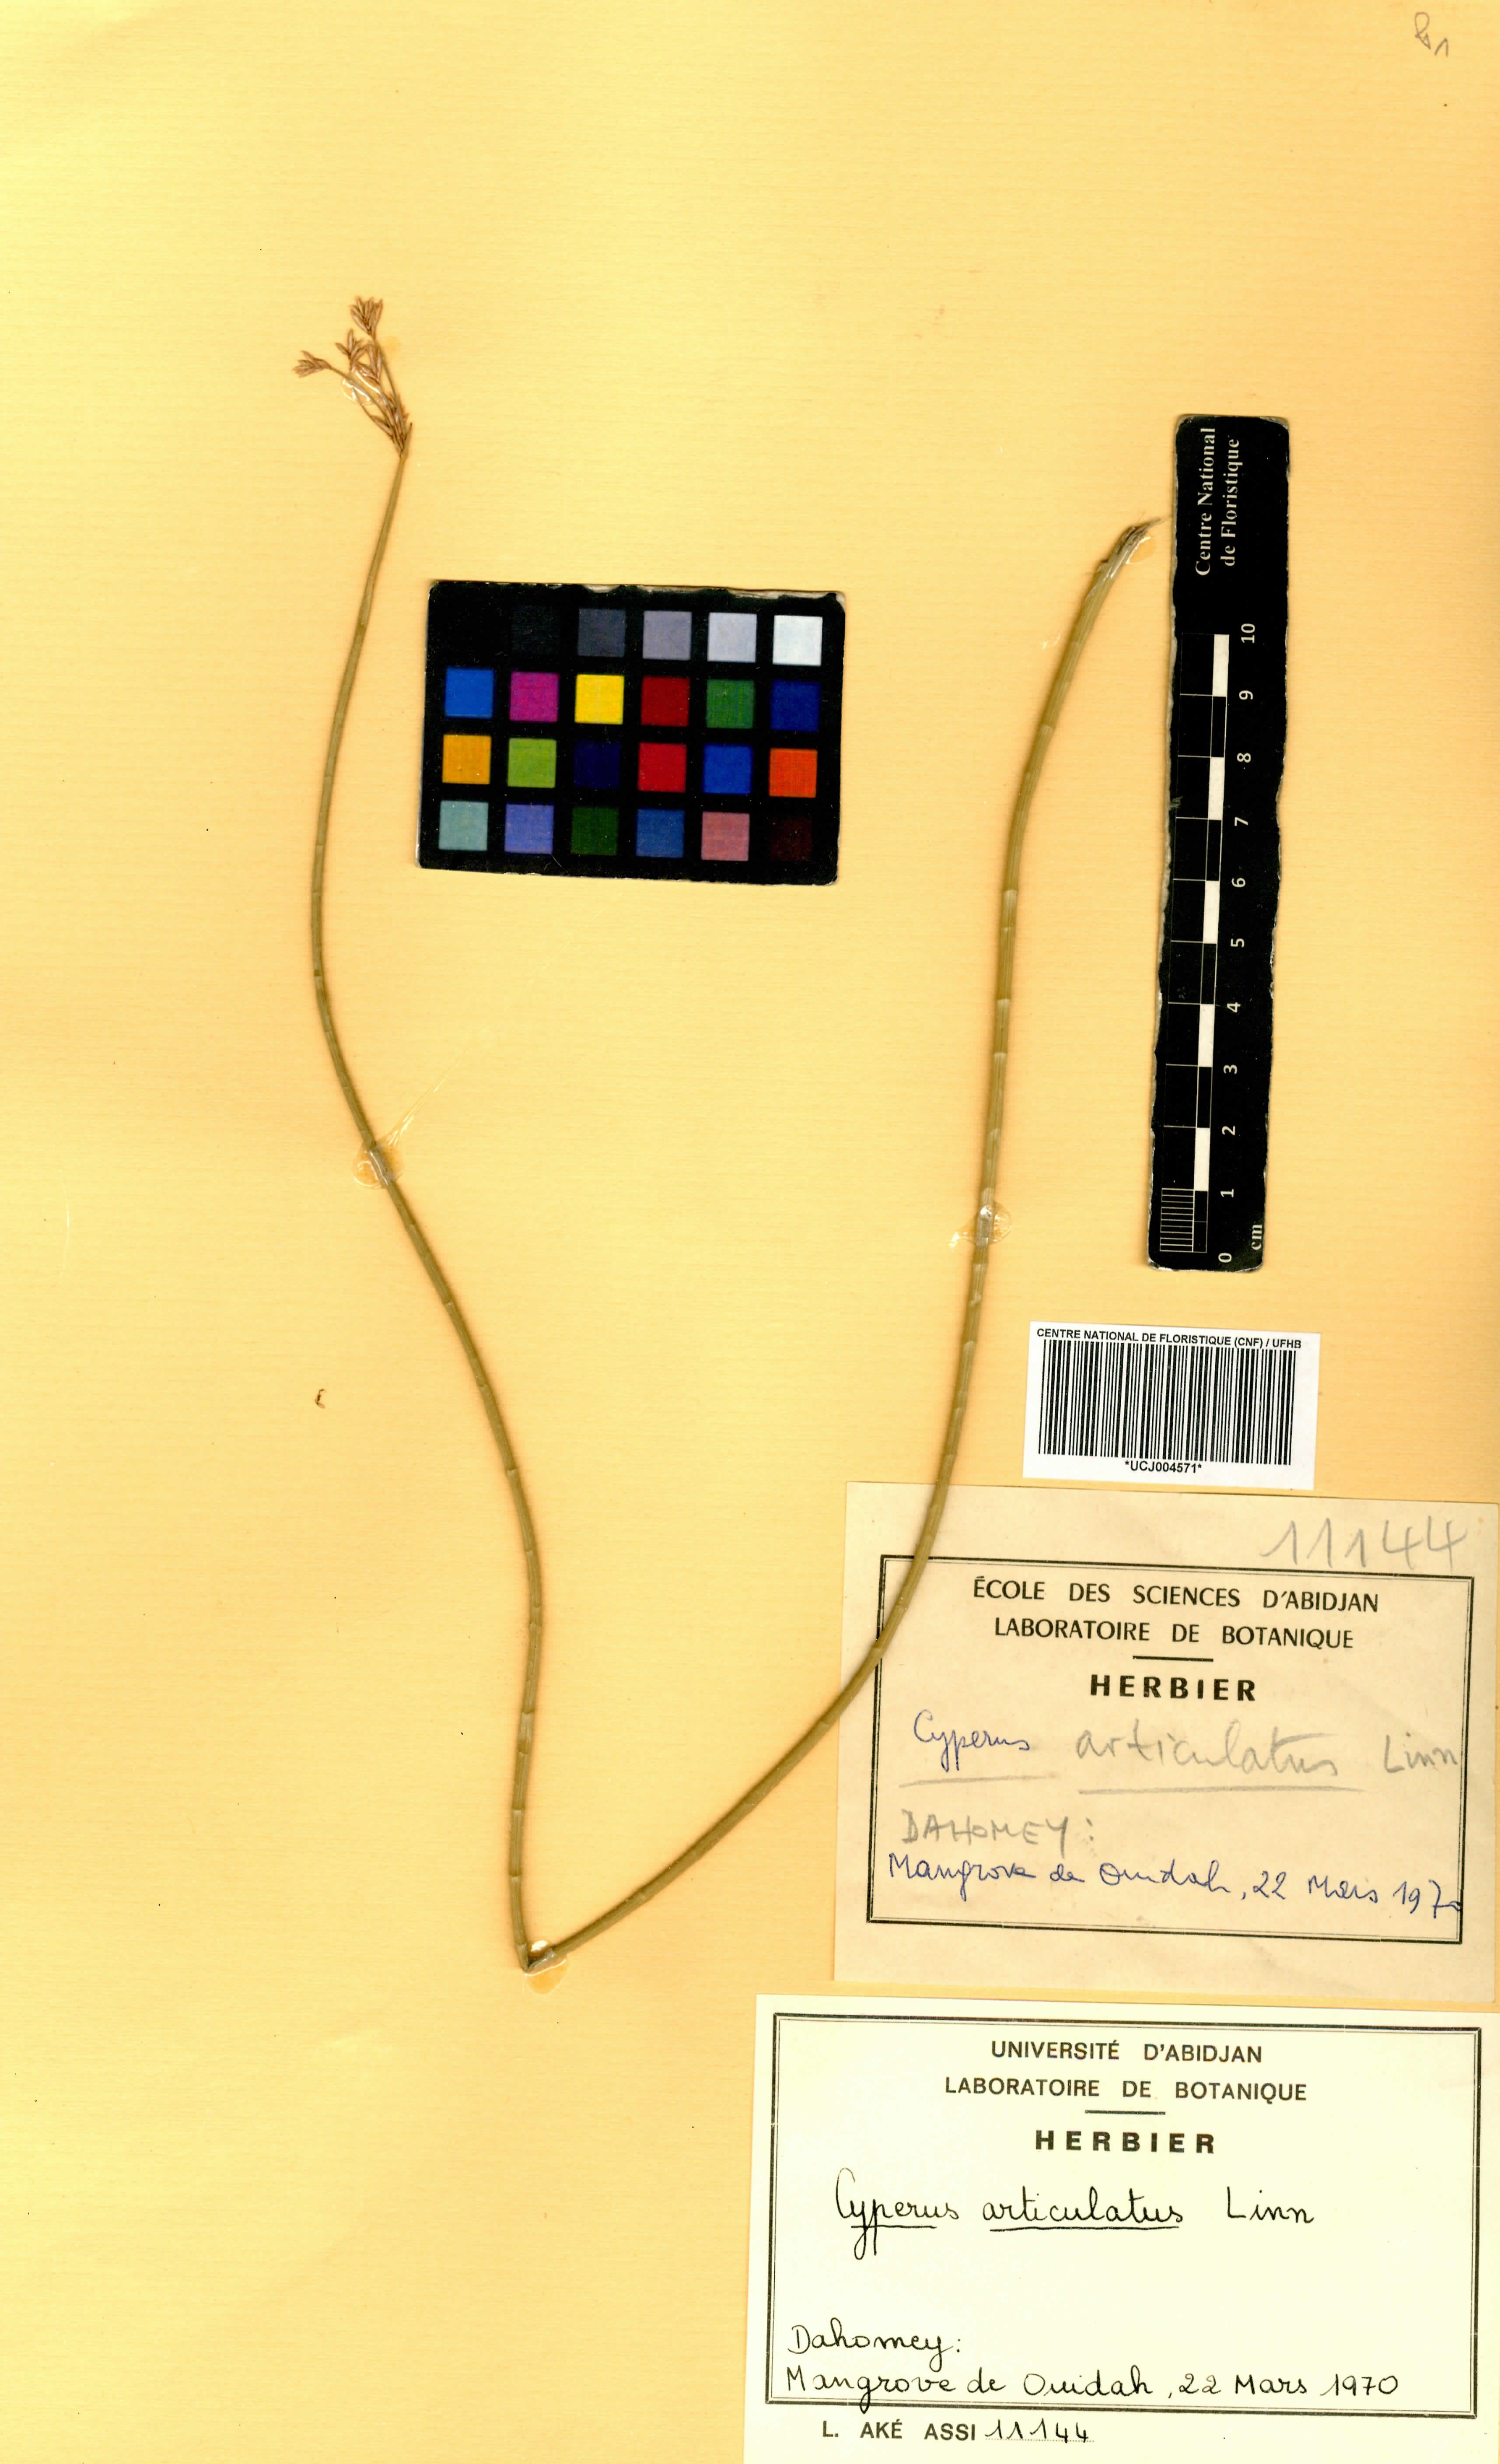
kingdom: Plantae
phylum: Tracheophyta
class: Liliopsida
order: Poales
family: Cyperaceae
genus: Cyperus
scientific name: Cyperus articulatus
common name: Jointed flatsedge
